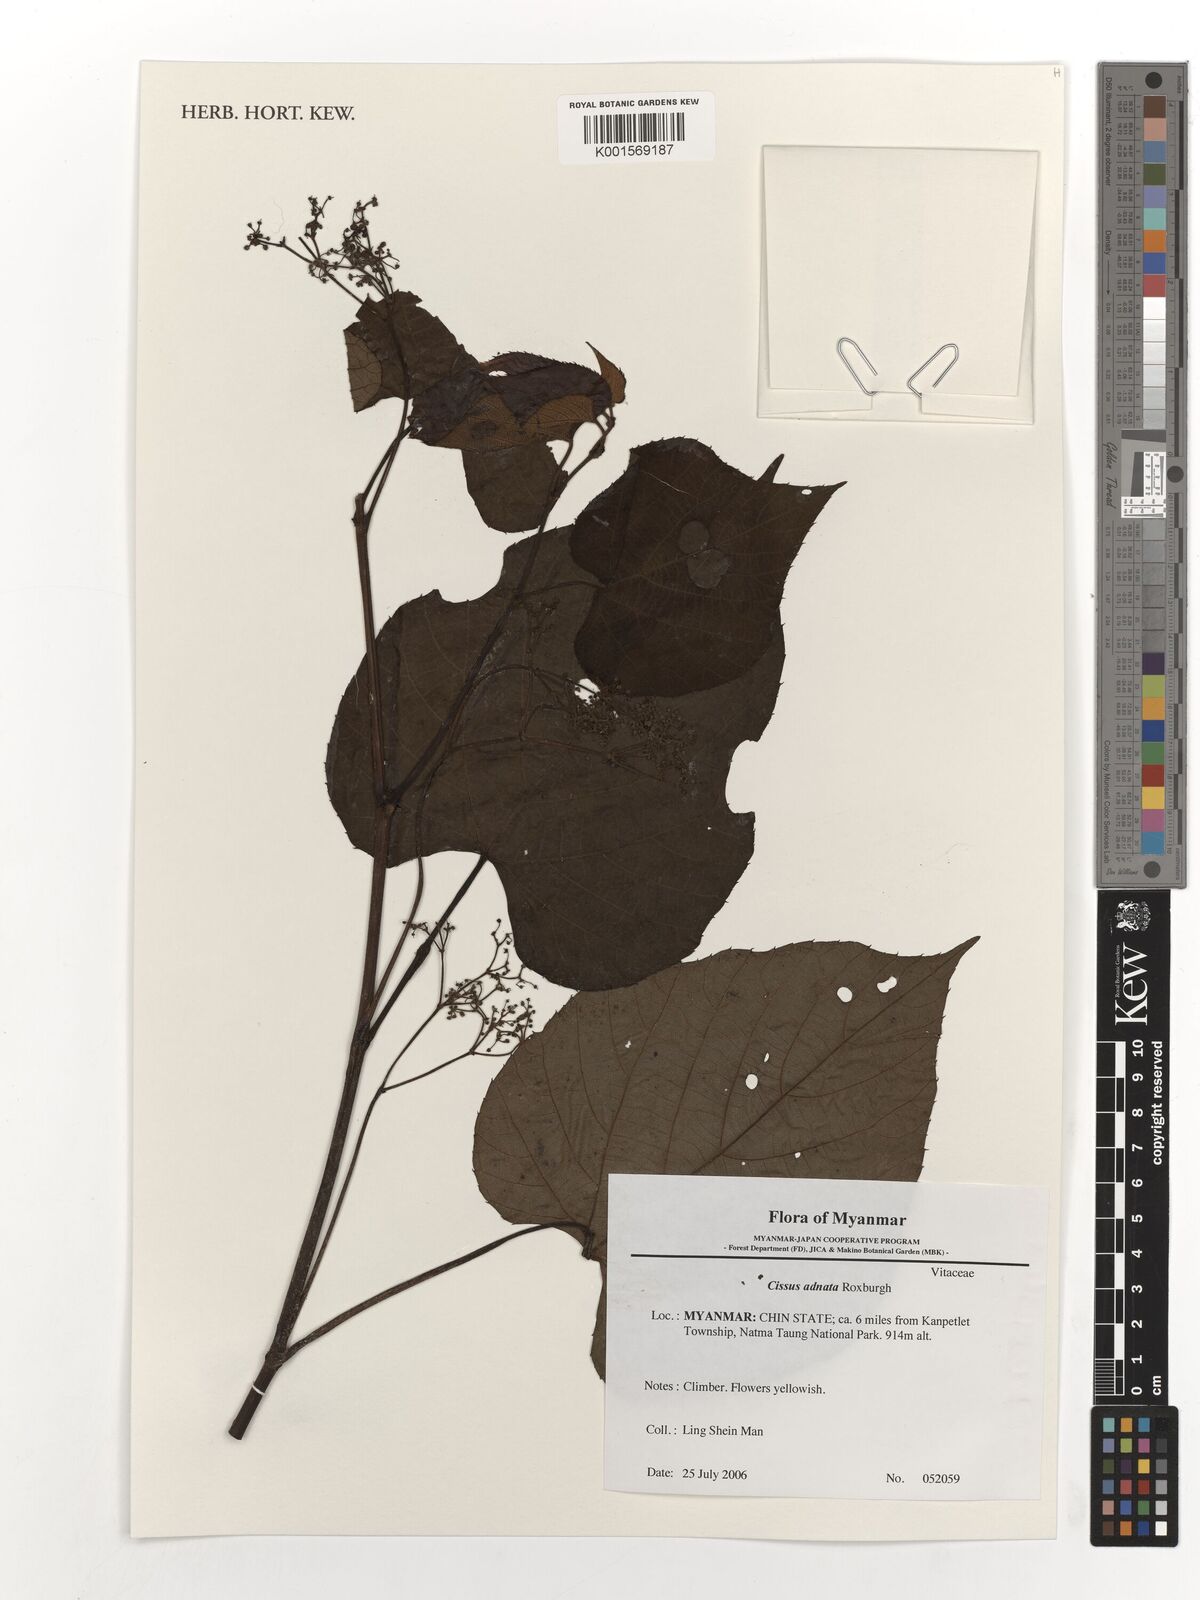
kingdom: Plantae
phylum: Tracheophyta
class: Magnoliopsida
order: Vitales
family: Vitaceae
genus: Cissus
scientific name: Cissus adnata
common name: Heart-leaf-grape
